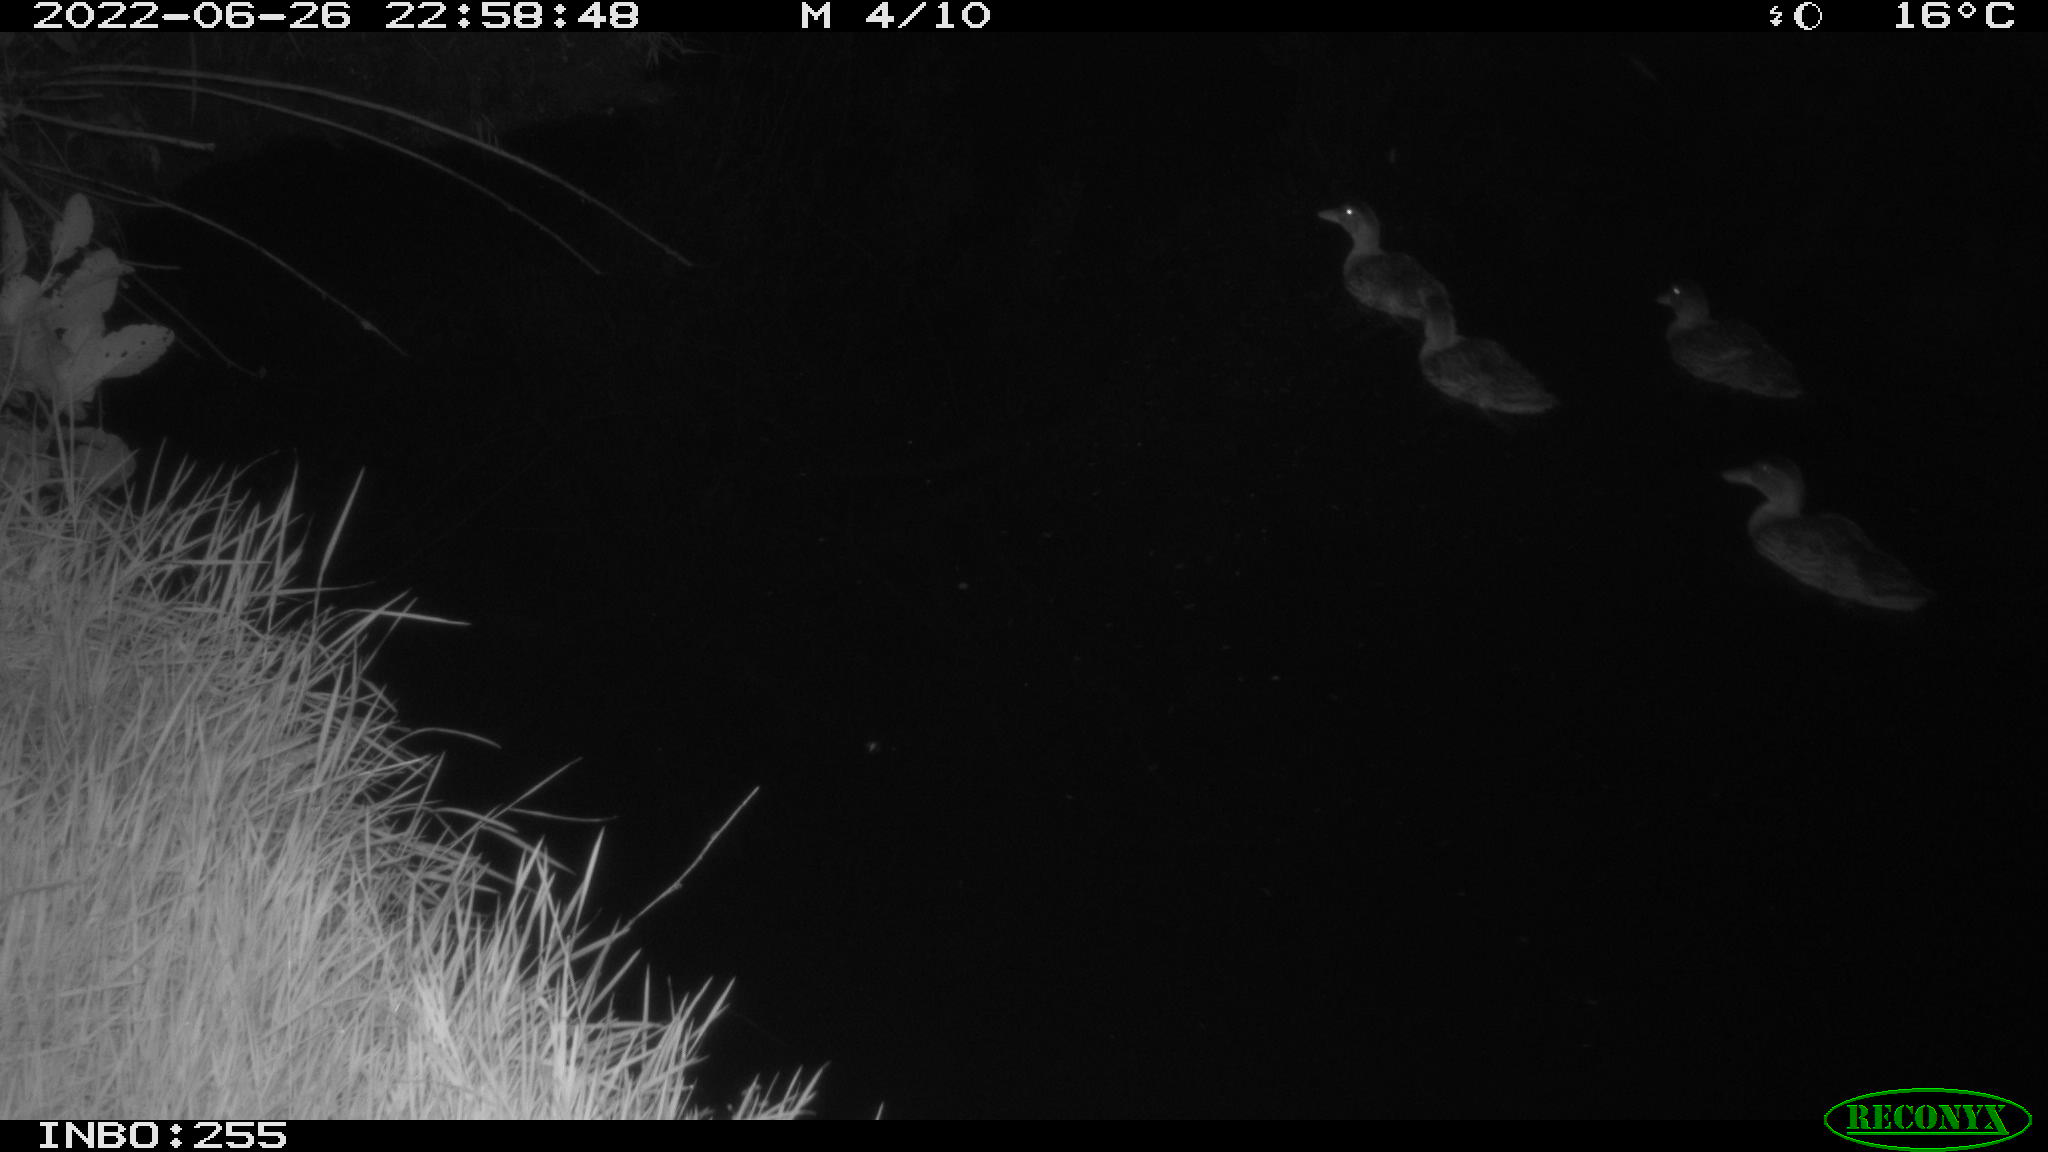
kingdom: Animalia
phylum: Chordata
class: Aves
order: Anseriformes
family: Anatidae
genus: Anas
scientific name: Anas platyrhynchos
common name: Mallard
